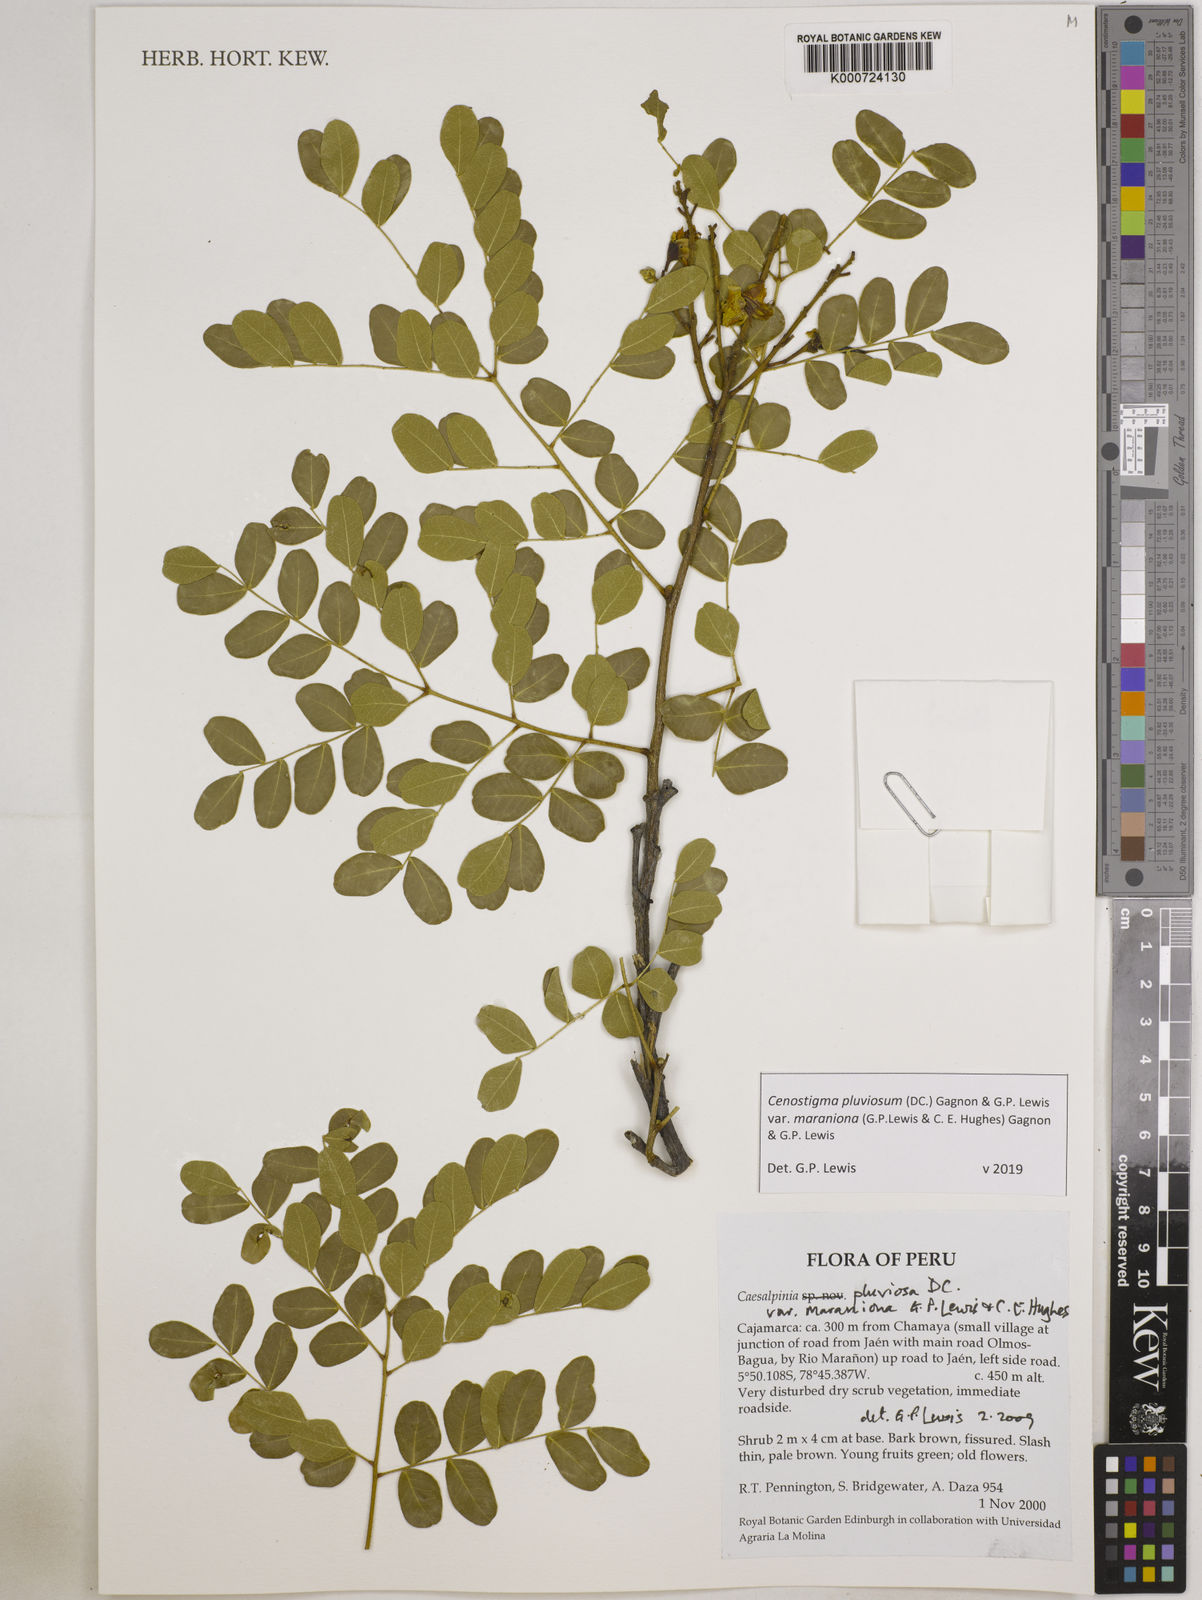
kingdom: Plantae
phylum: Tracheophyta
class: Magnoliopsida
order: Fabales
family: Fabaceae
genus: Cenostigma
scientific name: Cenostigma pluviosum
